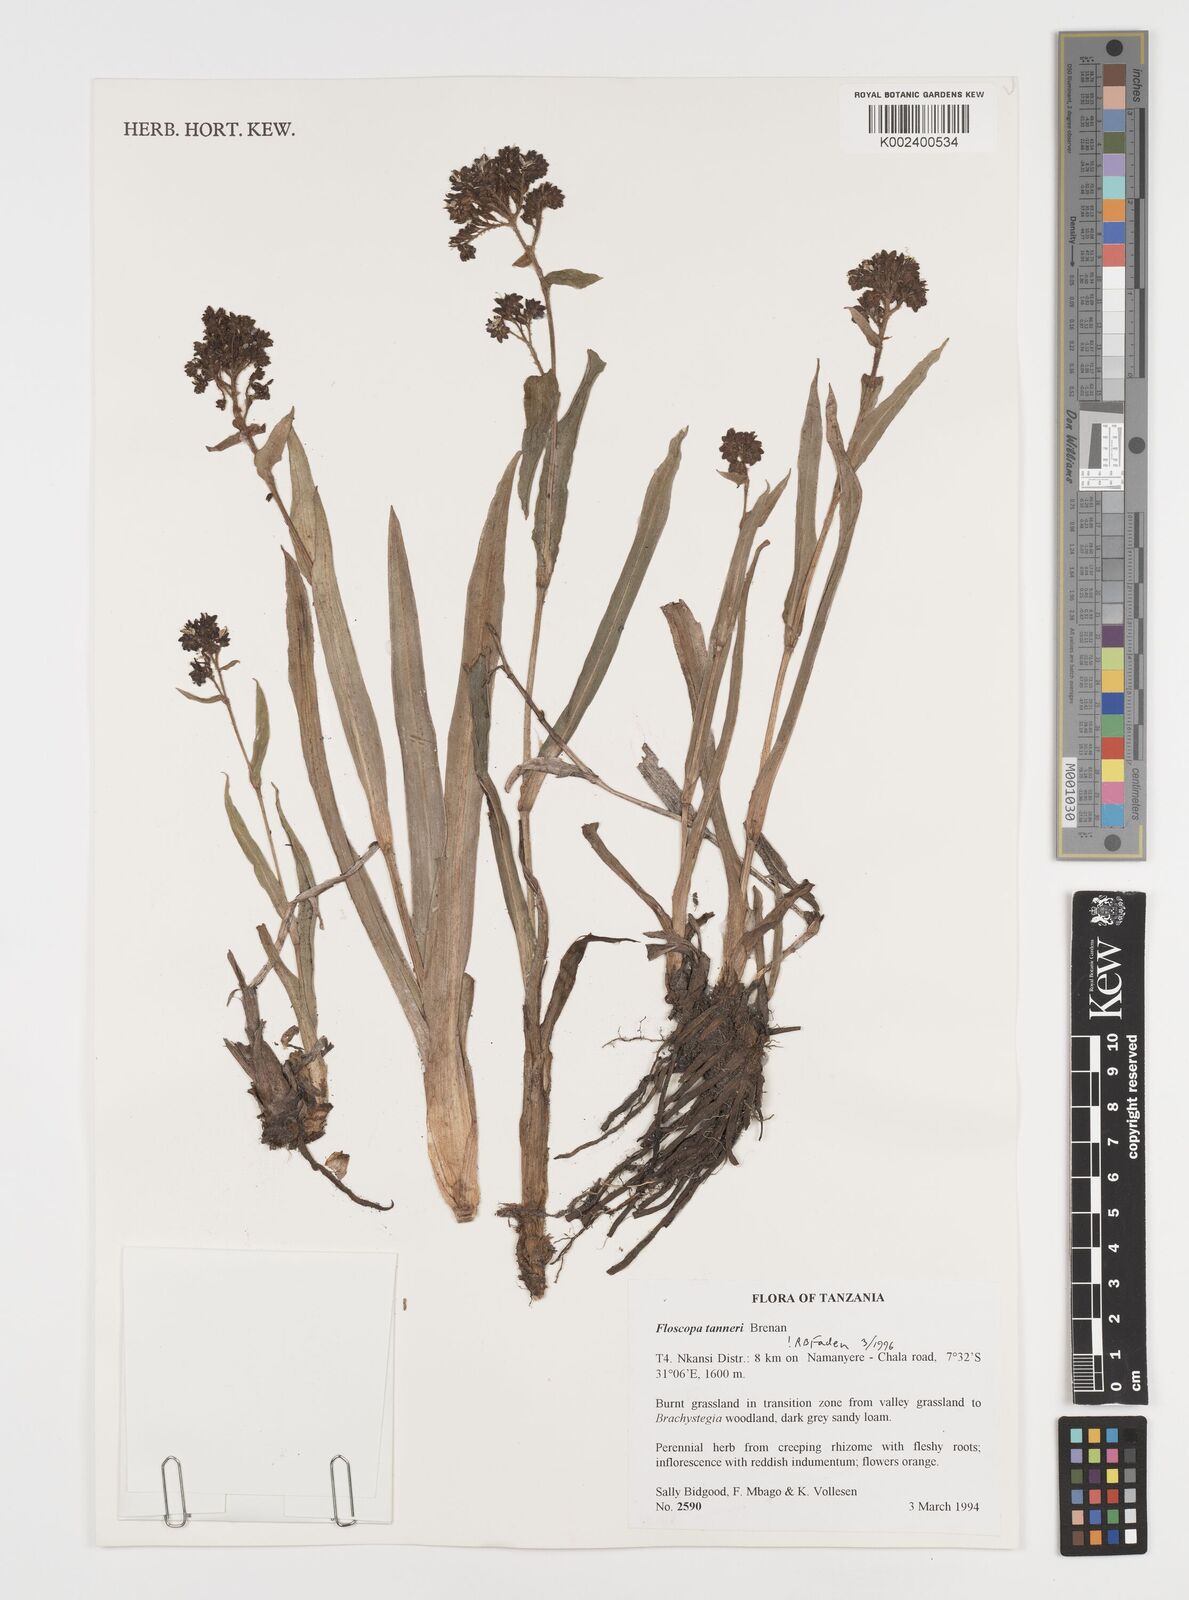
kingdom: Plantae
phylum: Tracheophyta
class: Liliopsida
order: Commelinales
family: Commelinaceae
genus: Floscopa
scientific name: Floscopa tanneri
